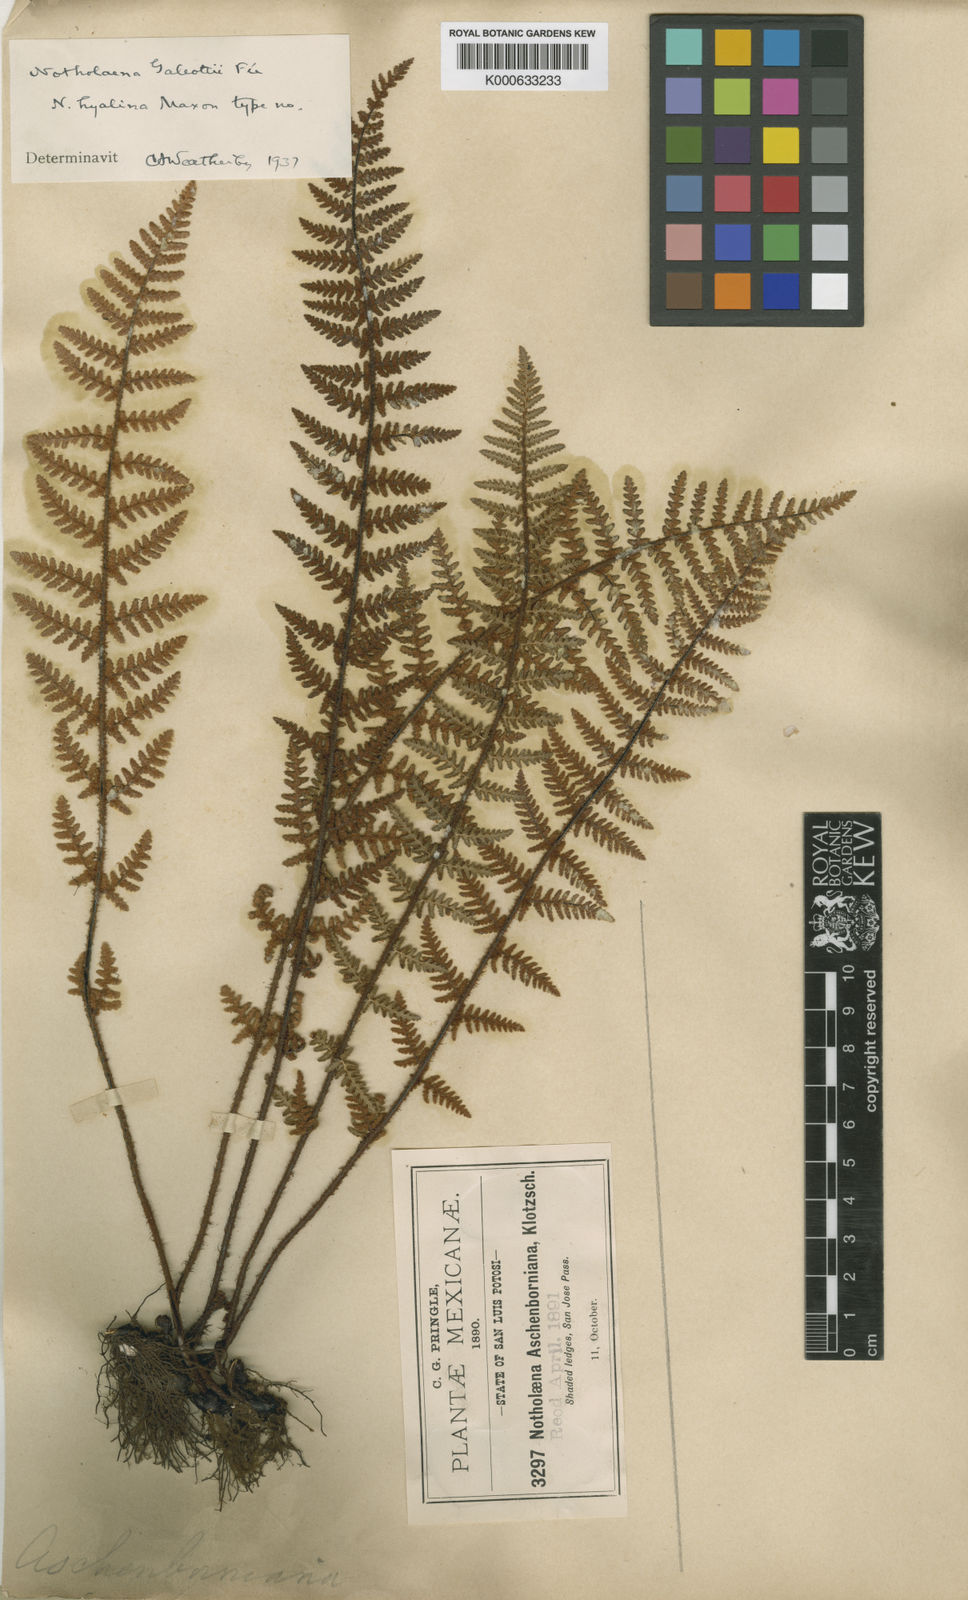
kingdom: Plantae
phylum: Tracheophyta
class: Polypodiopsida
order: Polypodiales
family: Pteridaceae
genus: Notholaena
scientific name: Notholaena aschenborniana
